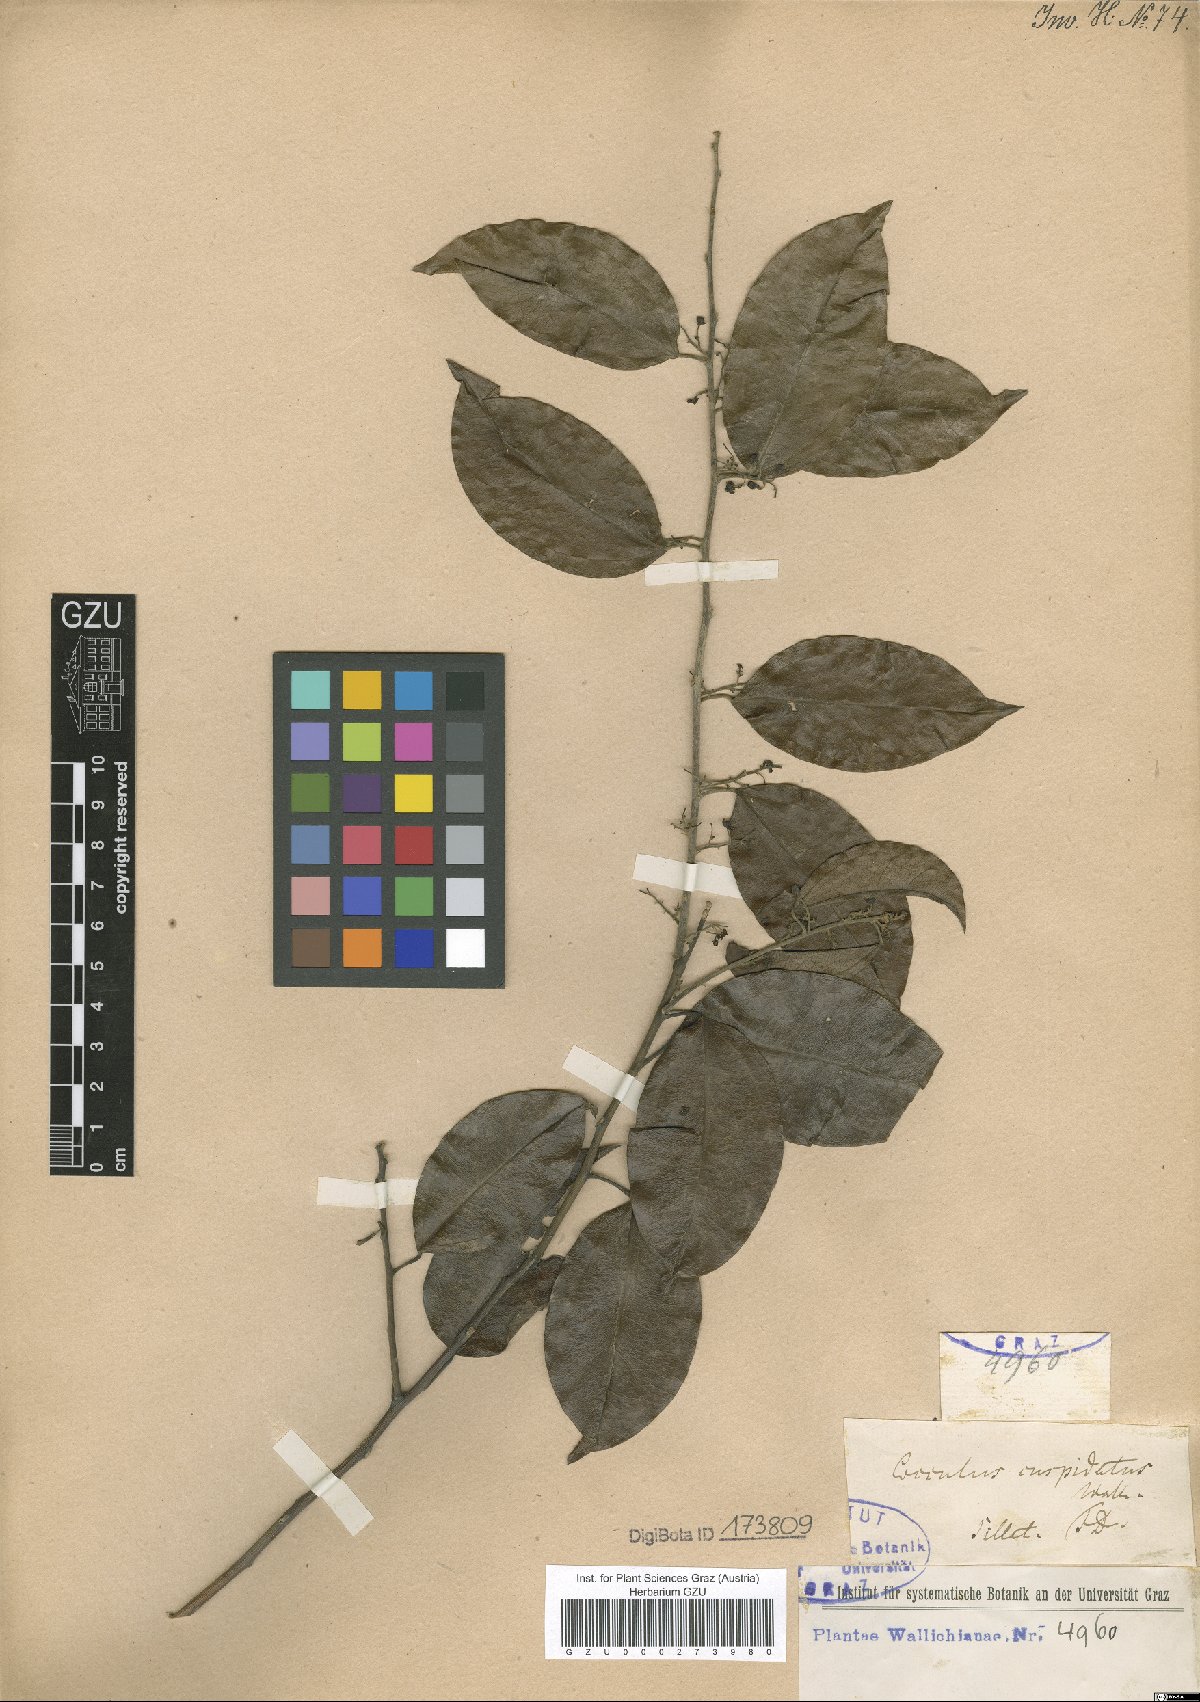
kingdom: Plantae
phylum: Tracheophyta
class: Magnoliopsida
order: Ranunculales
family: Menispermaceae
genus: Hypserpa
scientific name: Hypserpa nitida
